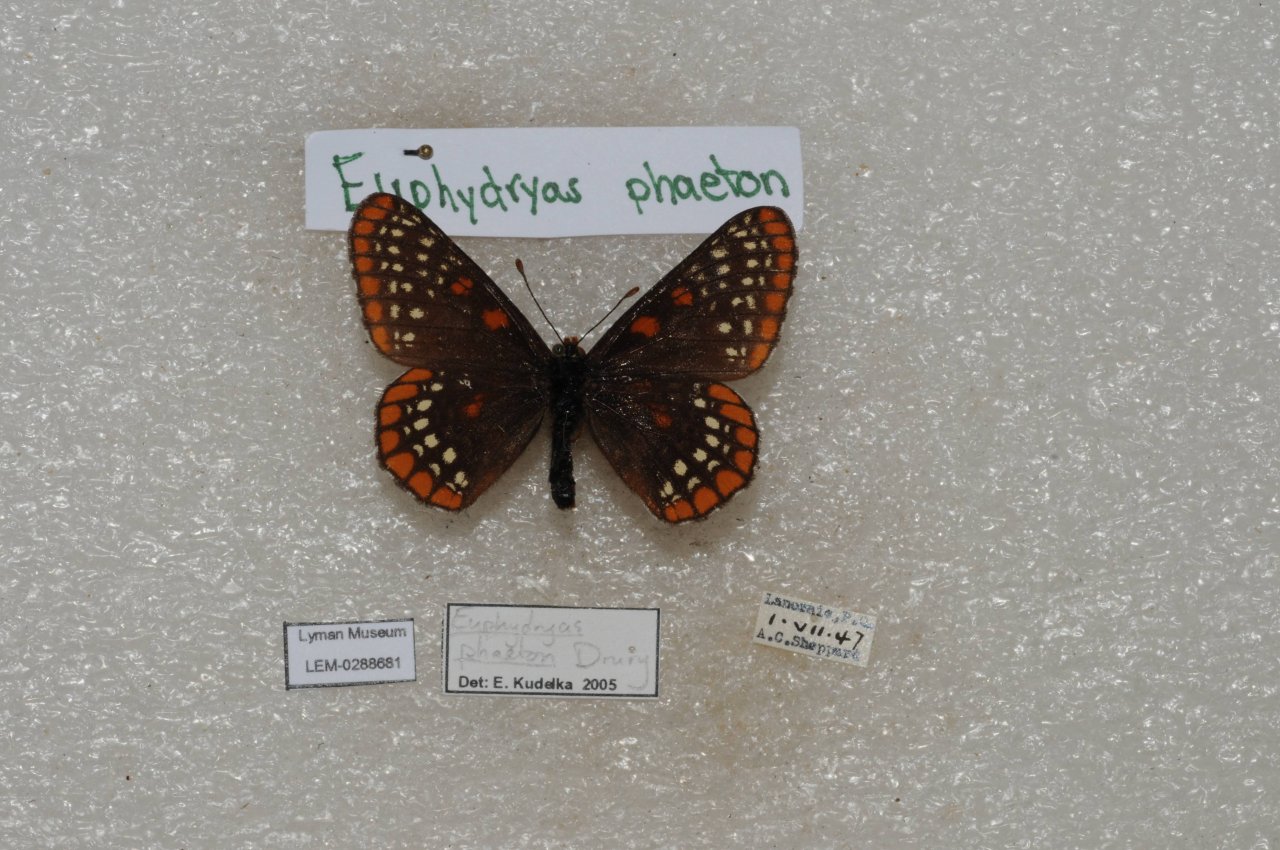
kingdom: Animalia
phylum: Arthropoda
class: Insecta
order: Lepidoptera
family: Nymphalidae
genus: Euphydryas
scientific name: Euphydryas phaeton
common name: Baltimore Checkerspot
